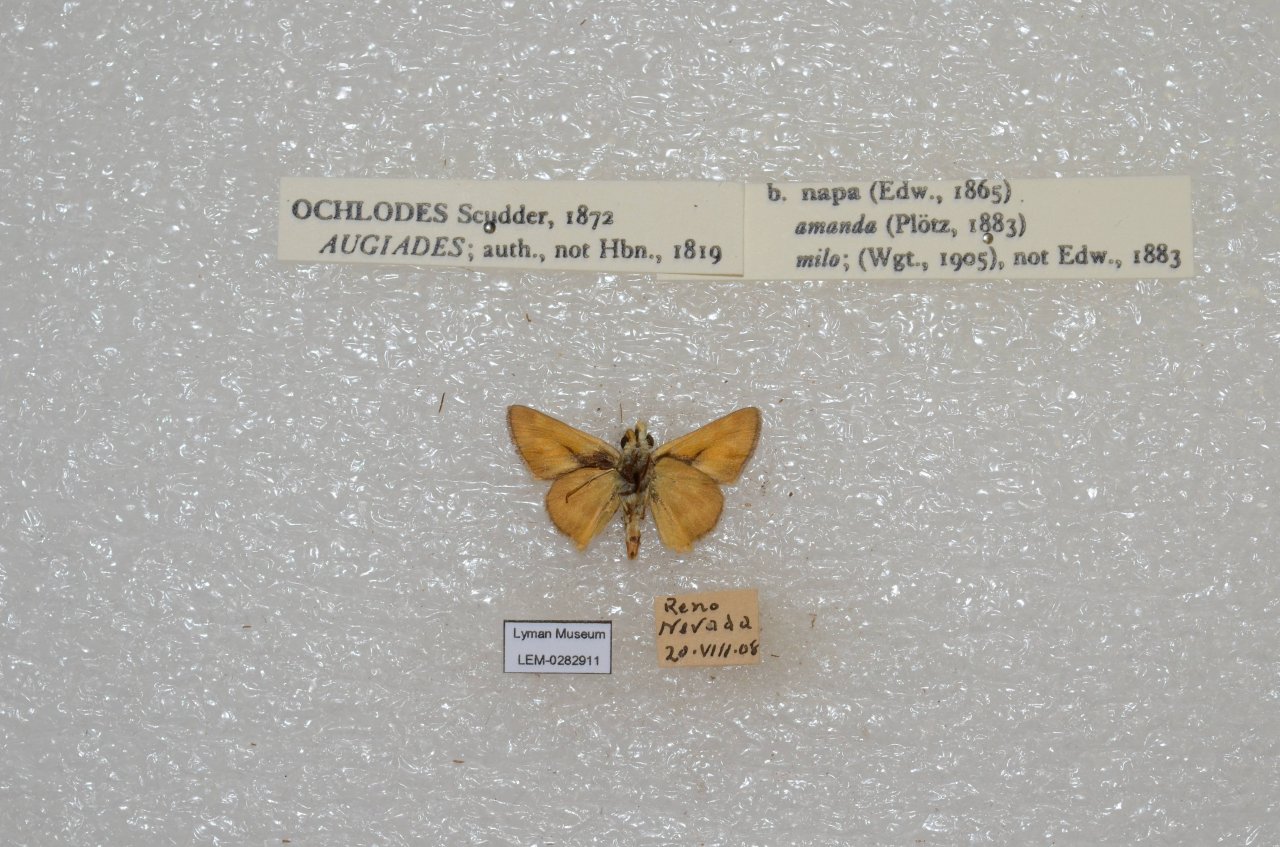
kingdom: Animalia
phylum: Arthropoda
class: Insecta
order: Lepidoptera
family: Hesperiidae
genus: Ochlodes
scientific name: Ochlodes sylvanoides
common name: Woodland Skipper
